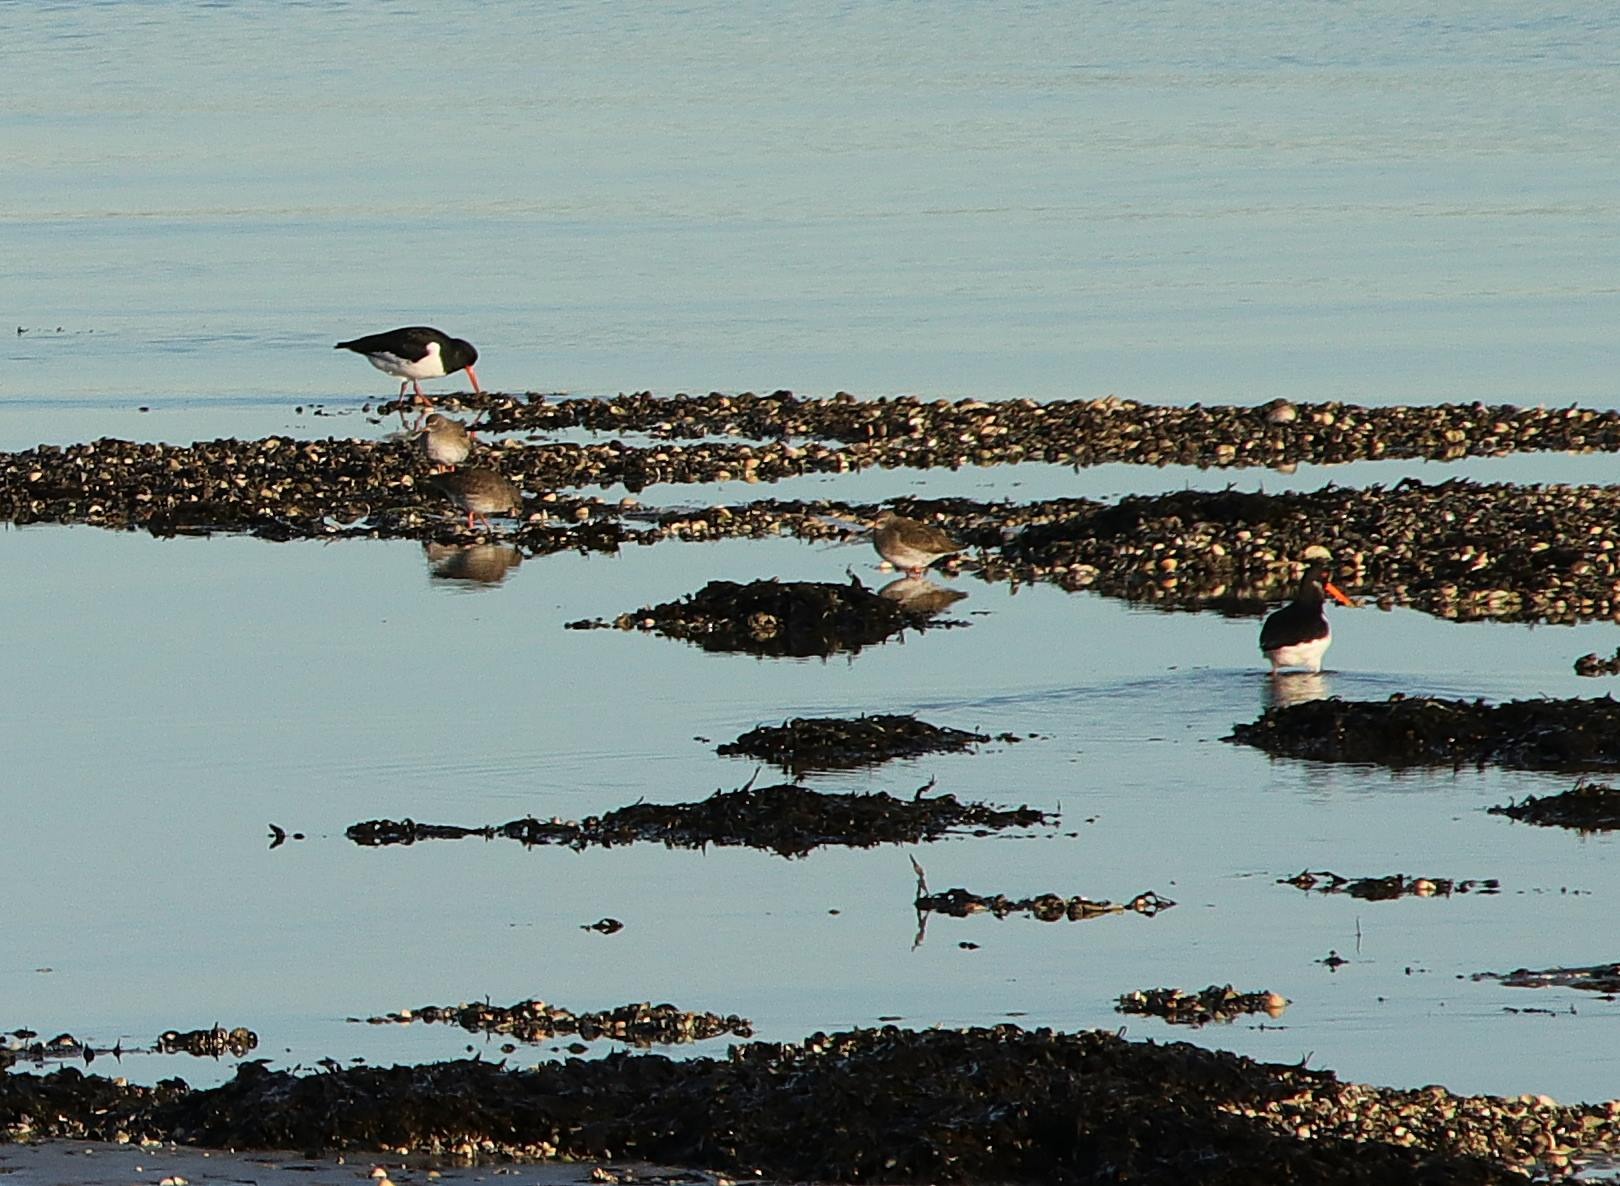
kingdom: Animalia
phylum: Chordata
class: Aves
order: Charadriiformes
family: Haematopodidae
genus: Haematopus
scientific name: Haematopus ostralegus
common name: Strandskade
